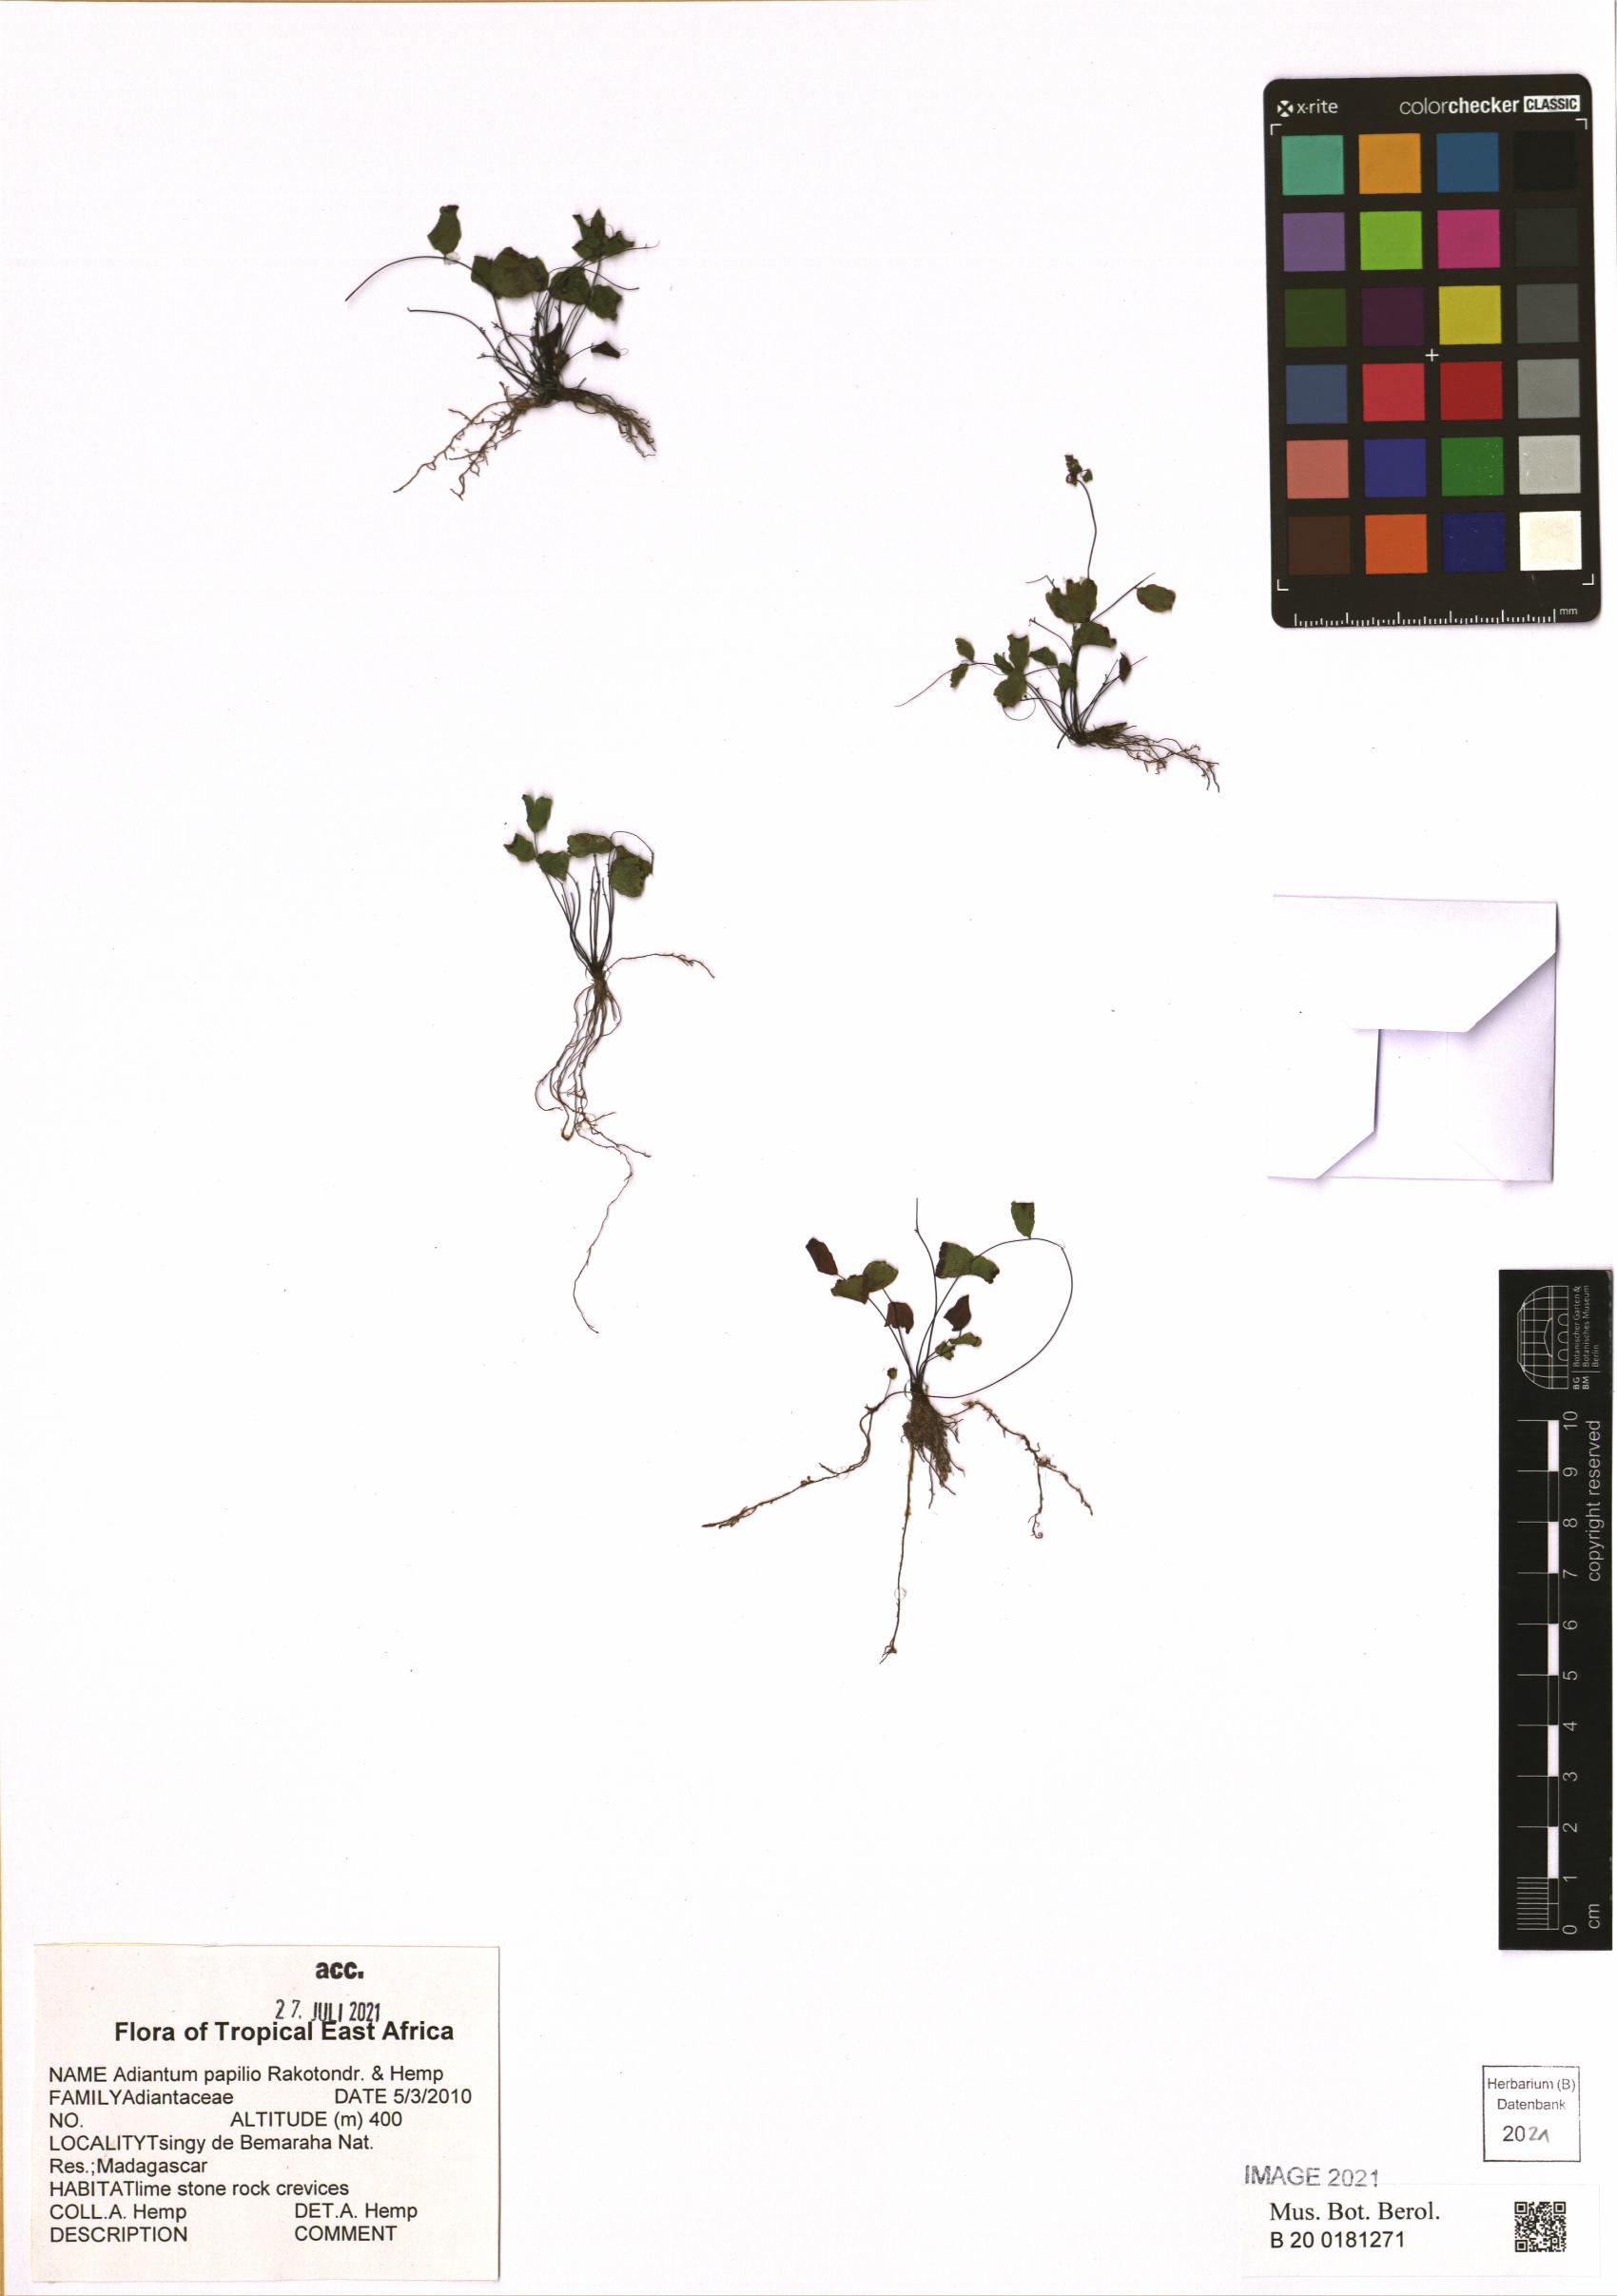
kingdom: Plantae
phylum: Tracheophyta
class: Polypodiopsida
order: Polypodiales
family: Pteridaceae
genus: Adiantum
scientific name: Adiantum papilio
